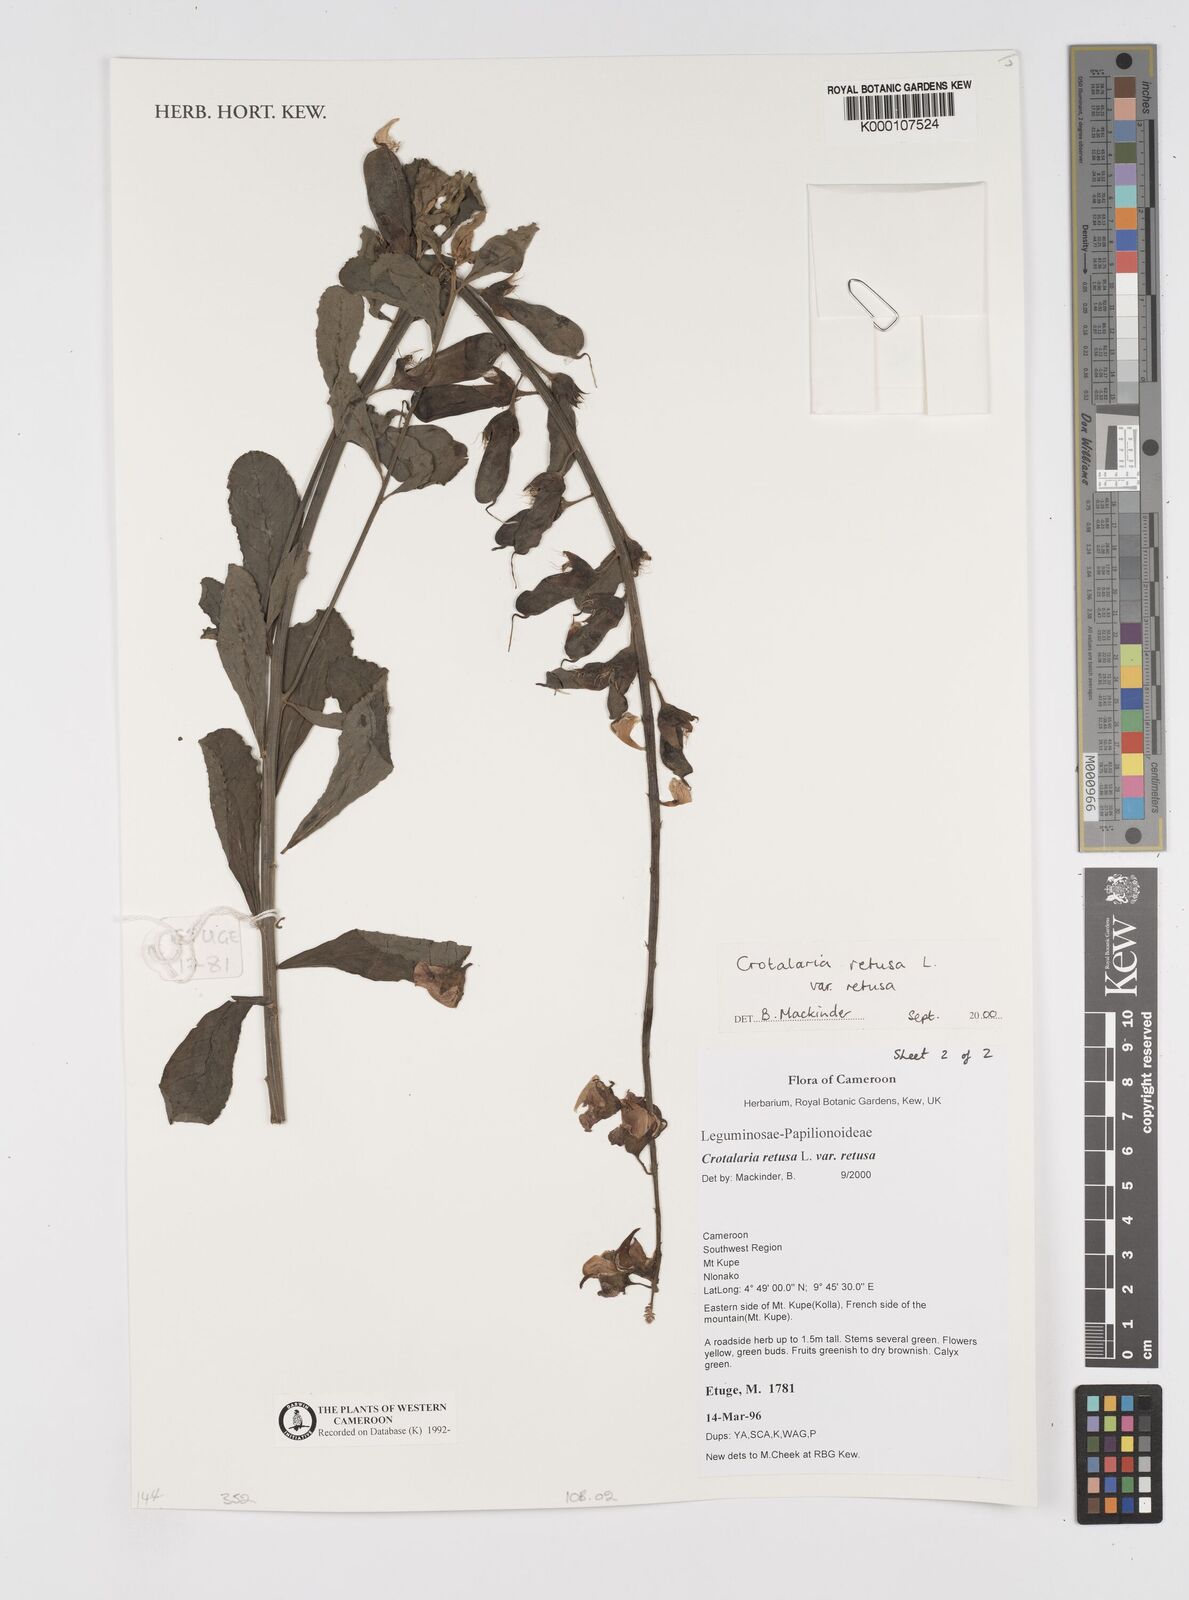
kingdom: Plantae
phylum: Tracheophyta
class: Magnoliopsida
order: Fabales
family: Fabaceae
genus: Crotalaria
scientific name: Crotalaria retusa
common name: Rattleweed
